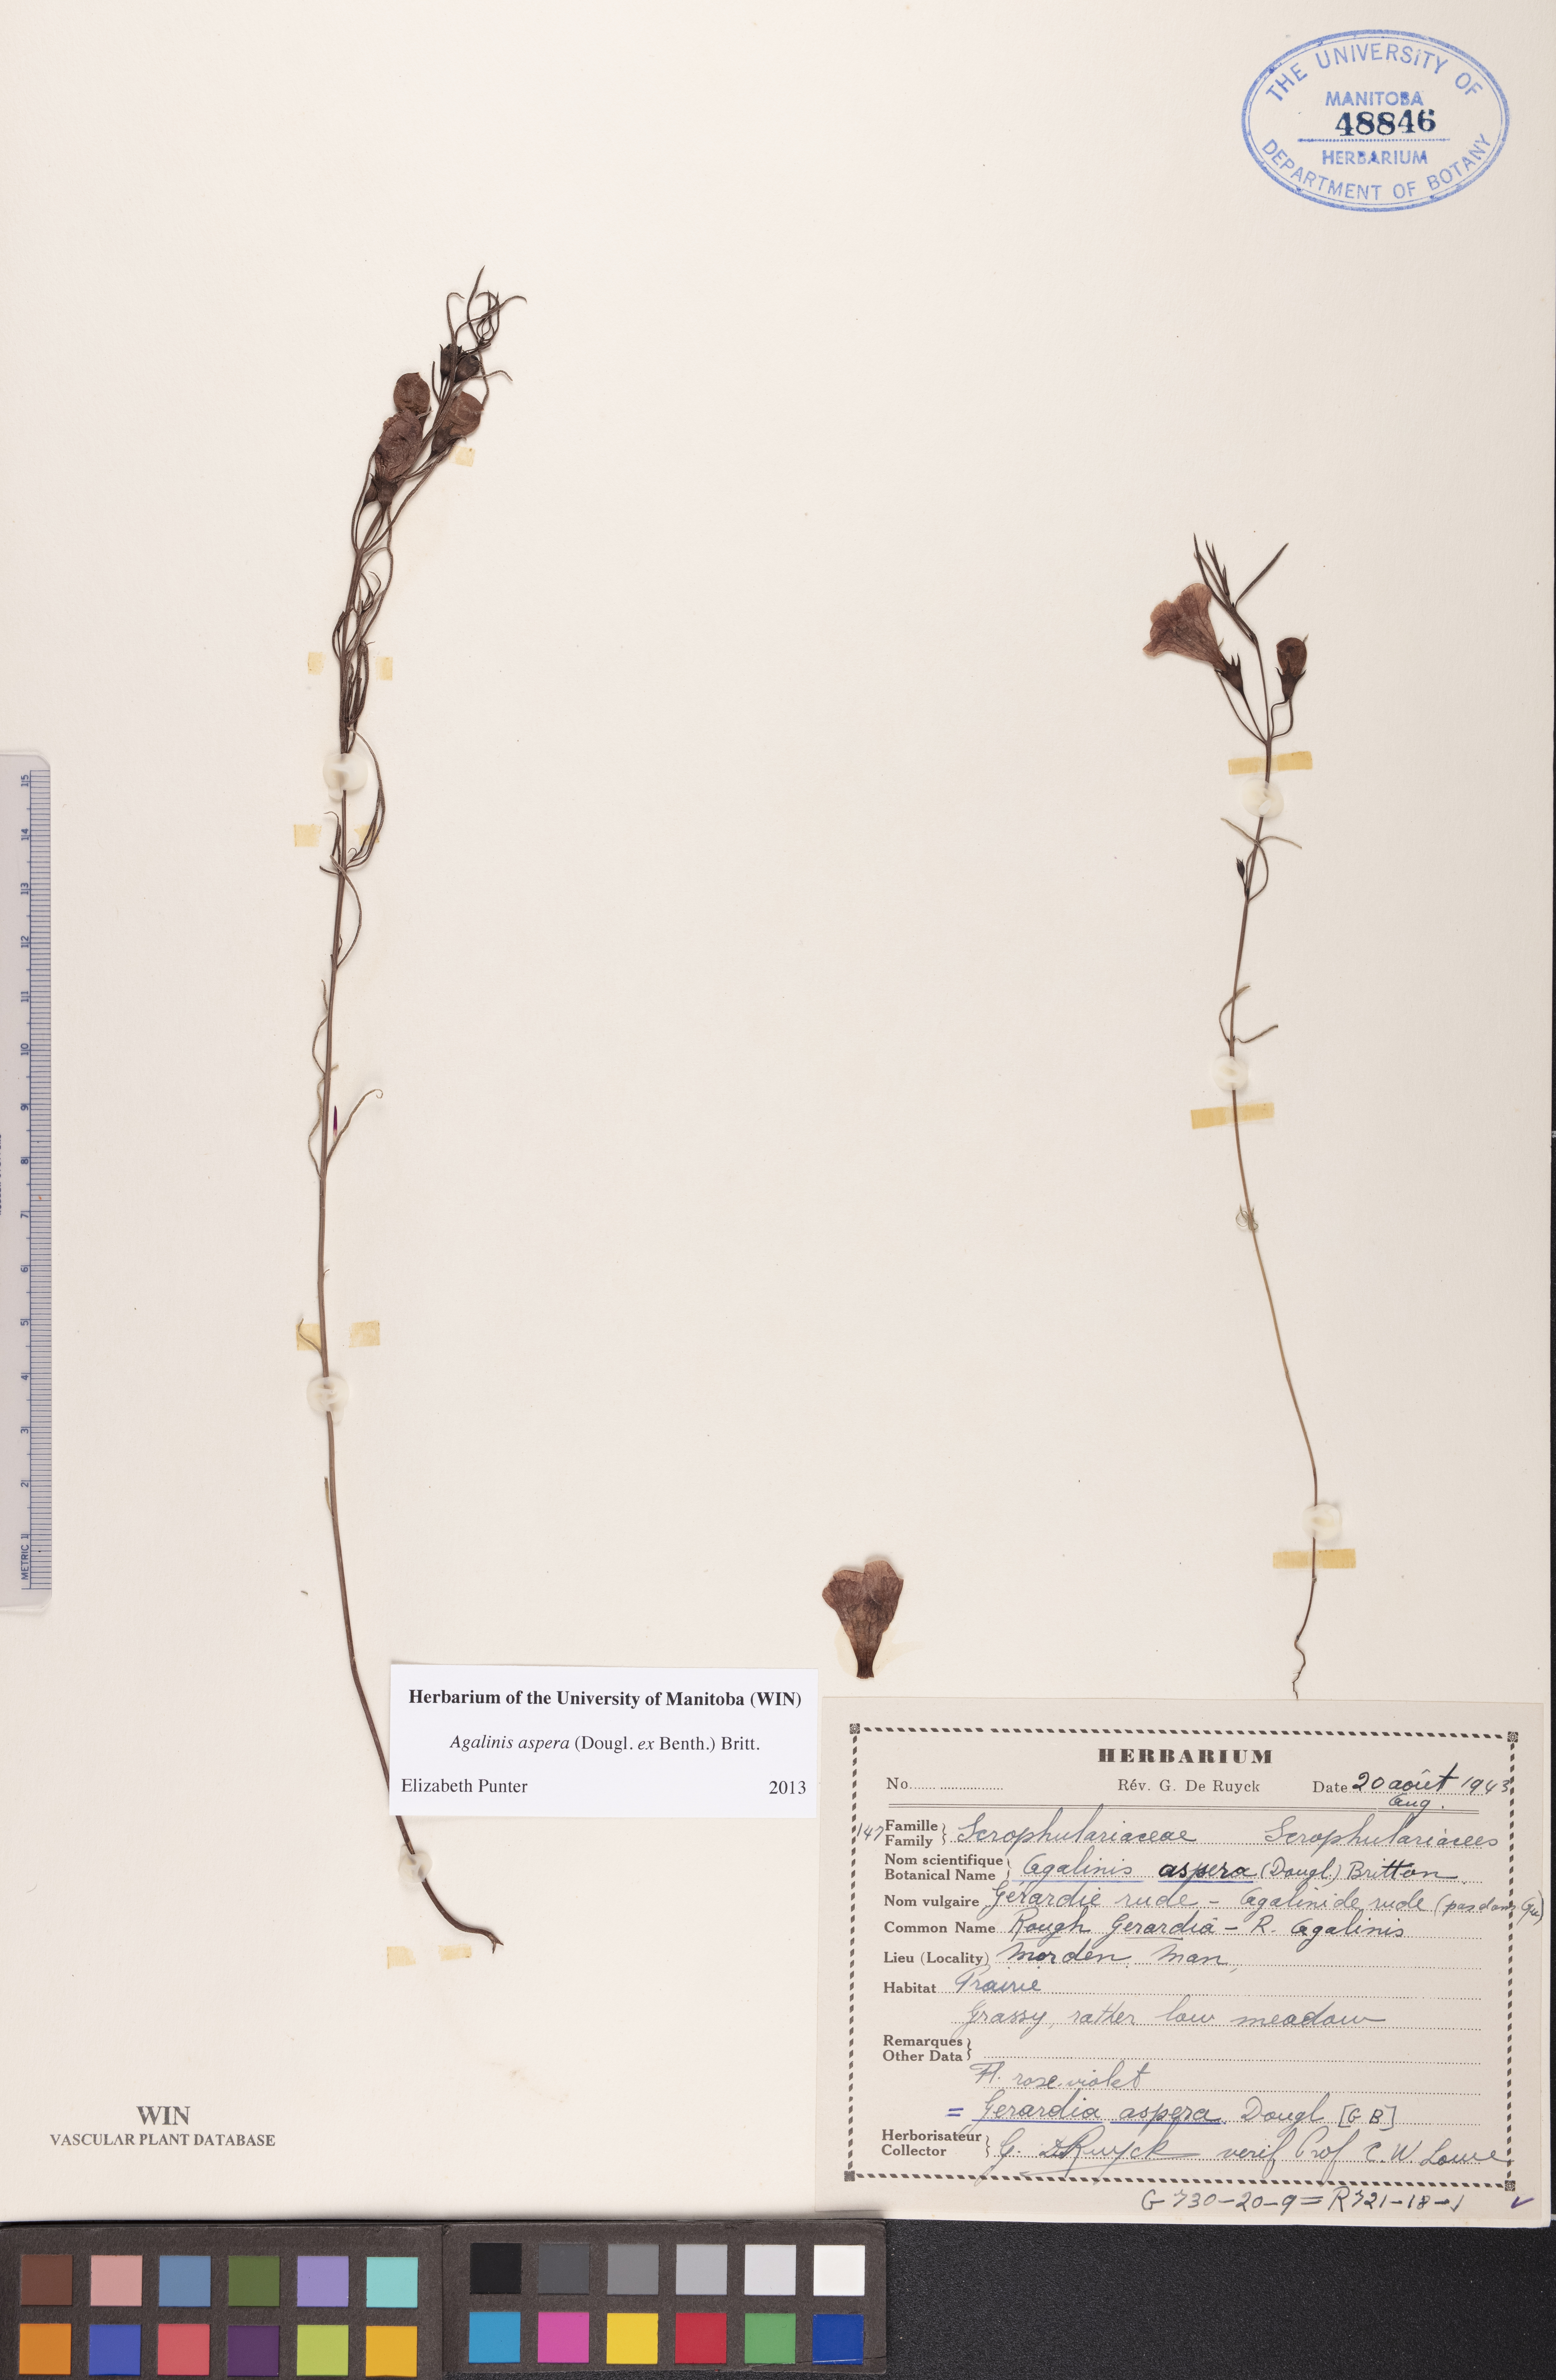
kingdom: Plantae
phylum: Tracheophyta
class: Magnoliopsida
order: Lamiales
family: Orobanchaceae
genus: Agalinis
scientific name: Agalinis aspera
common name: Rough agalinis
